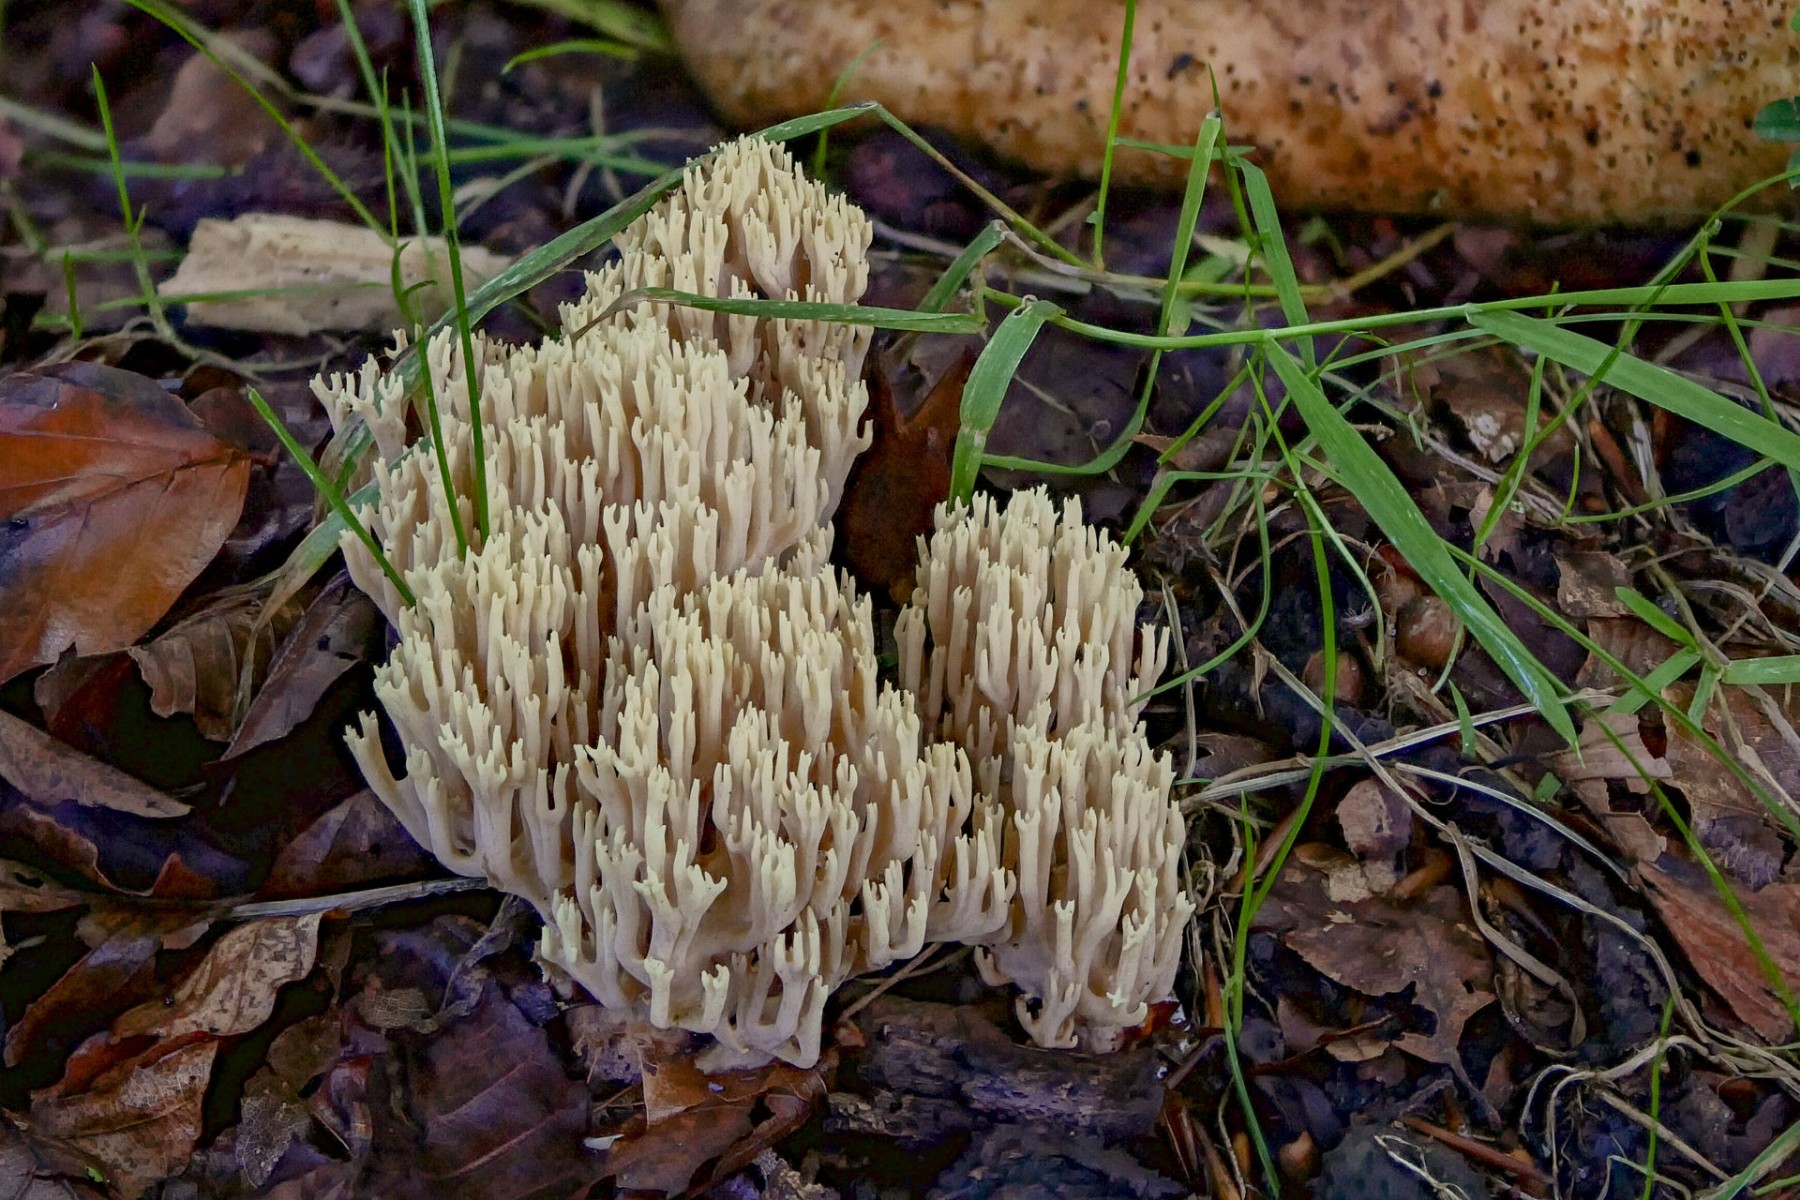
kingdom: Fungi
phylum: Basidiomycota
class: Agaricomycetes
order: Gomphales
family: Gomphaceae
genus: Ramaria
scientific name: Ramaria stricta
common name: rank koralsvamp
